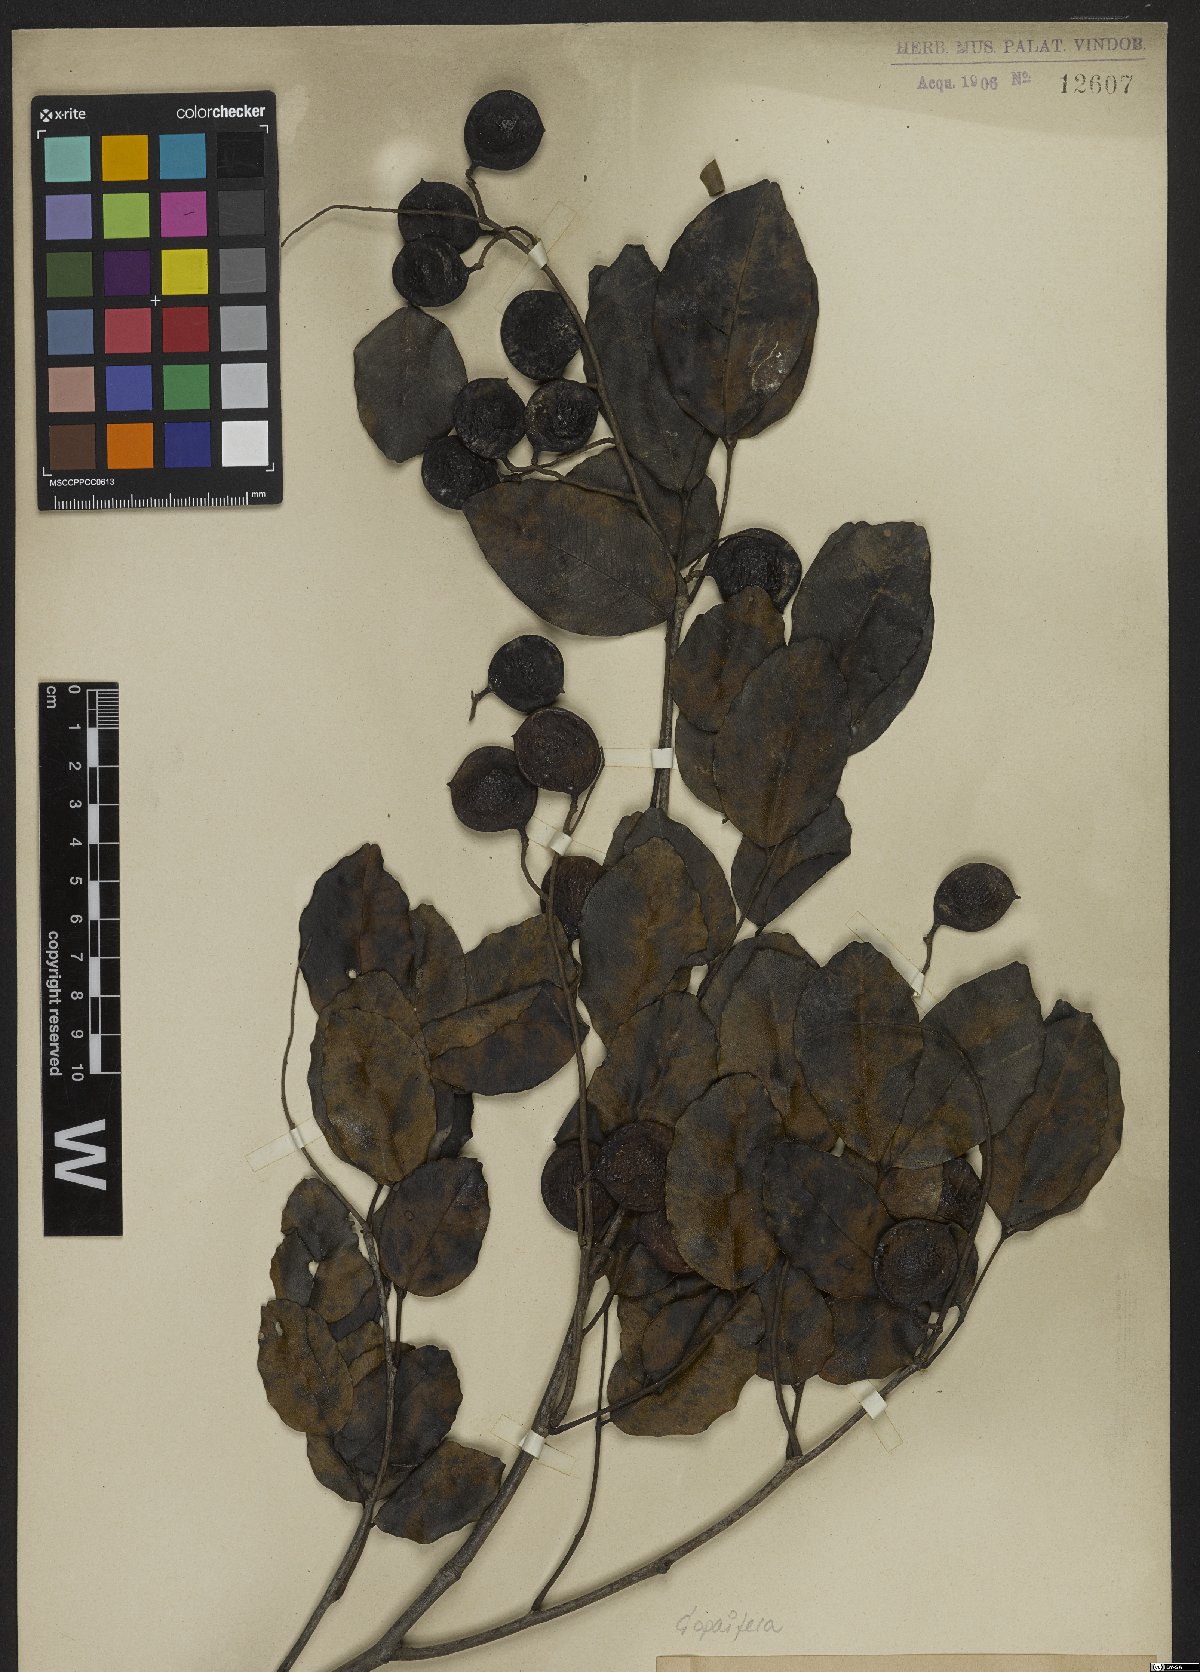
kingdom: Plantae
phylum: Tracheophyta
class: Magnoliopsida
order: Fabales
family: Fabaceae
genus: Copaifera
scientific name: Copaifera
